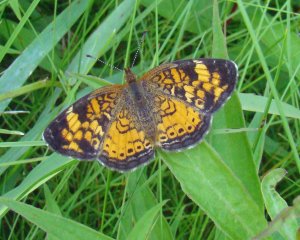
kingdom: Animalia
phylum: Arthropoda
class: Insecta
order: Lepidoptera
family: Nymphalidae
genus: Phyciodes
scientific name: Phyciodes tharos
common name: Pearl Crescent
